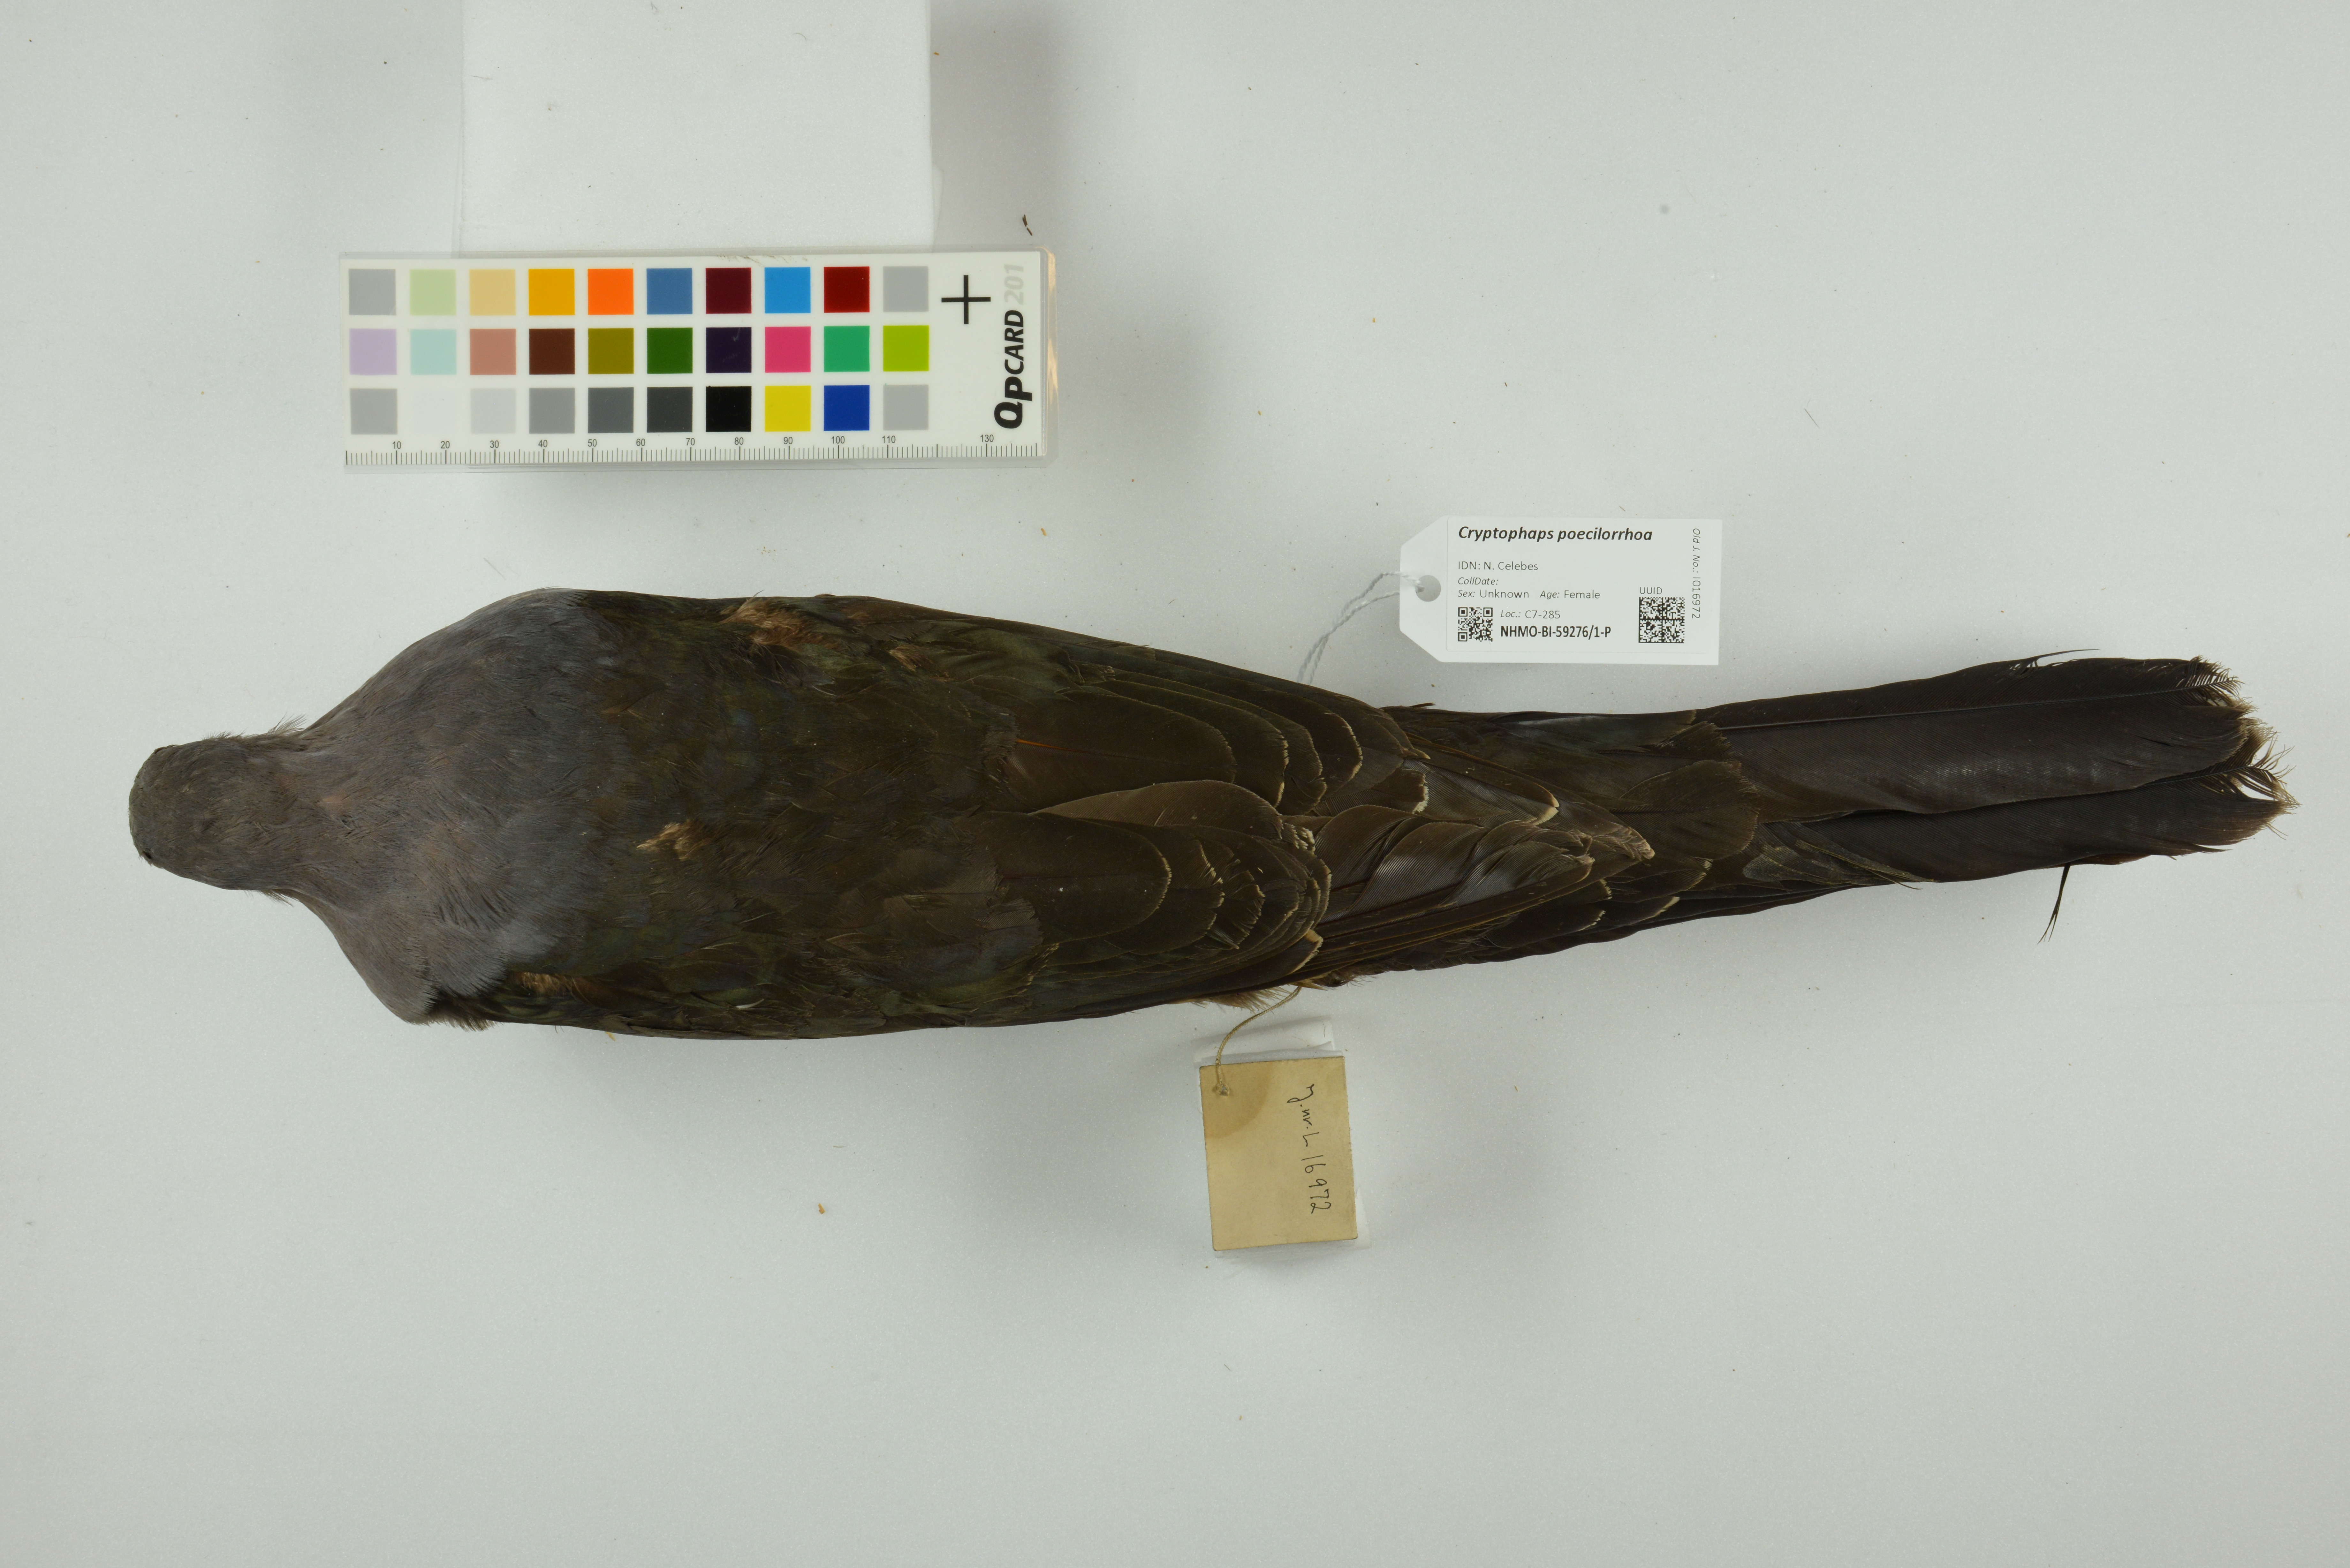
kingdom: Animalia
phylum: Chordata
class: Aves
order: Columbiformes
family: Columbidae
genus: Cryptophaps
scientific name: Cryptophaps poecilorrhoa
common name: Sombre pigeon
